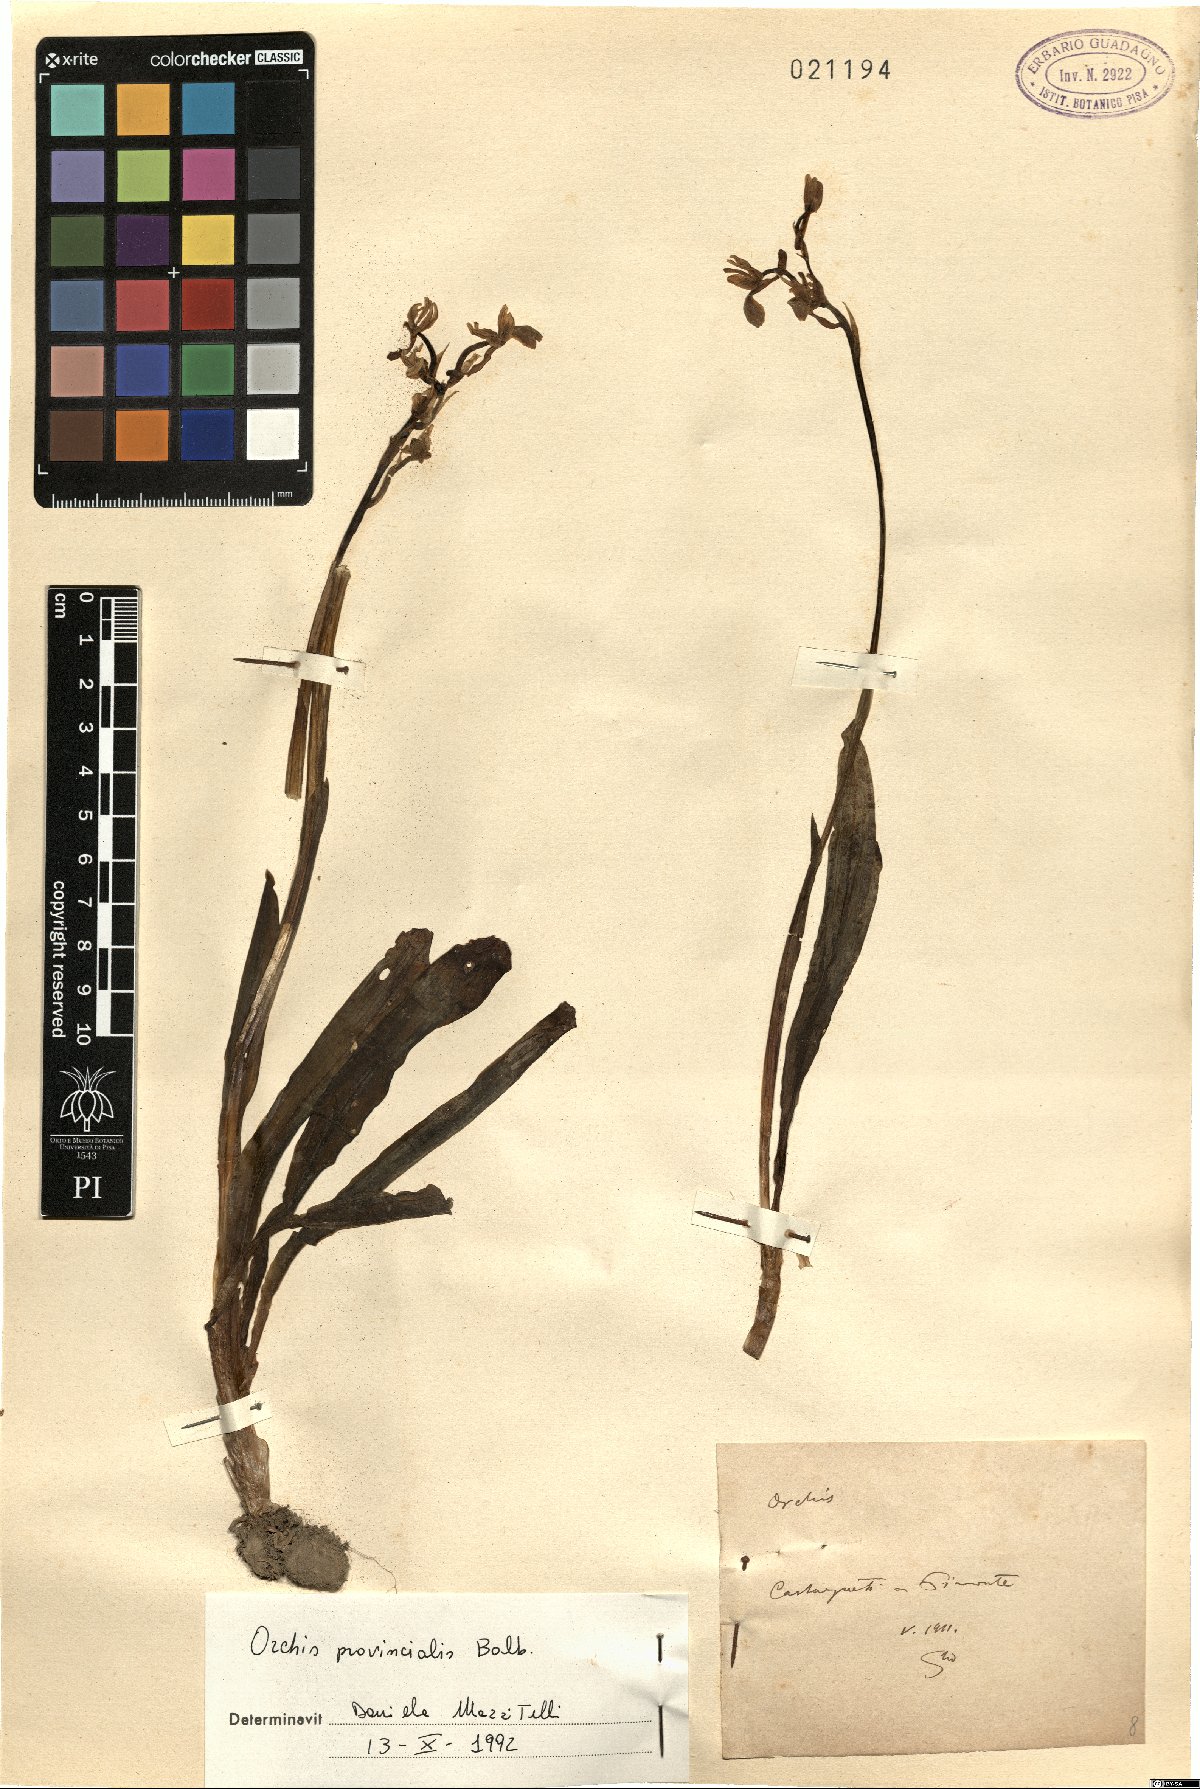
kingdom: Plantae
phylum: Tracheophyta
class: Liliopsida
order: Asparagales
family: Orchidaceae
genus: Orchis
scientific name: Orchis provincialis
